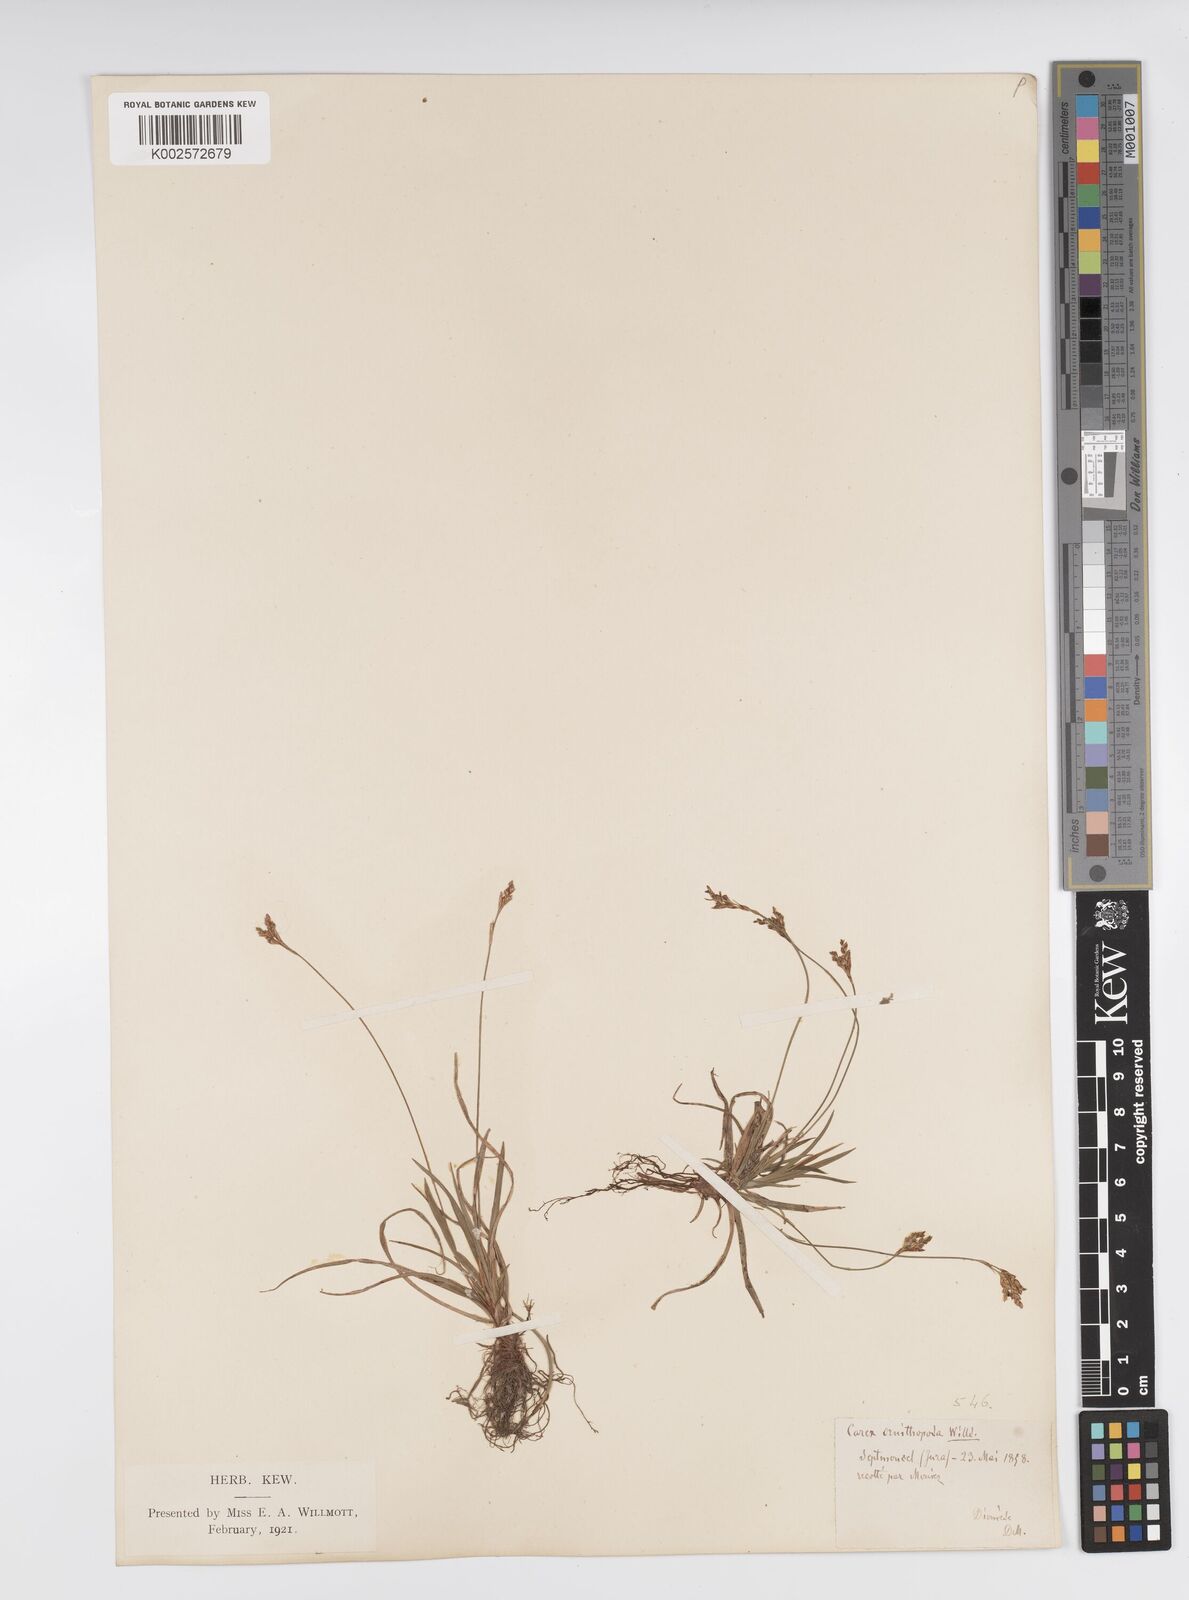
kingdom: Plantae
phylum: Tracheophyta
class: Liliopsida
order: Poales
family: Cyperaceae
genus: Carex
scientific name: Carex ornithopoda
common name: Bird's-foot sedge
